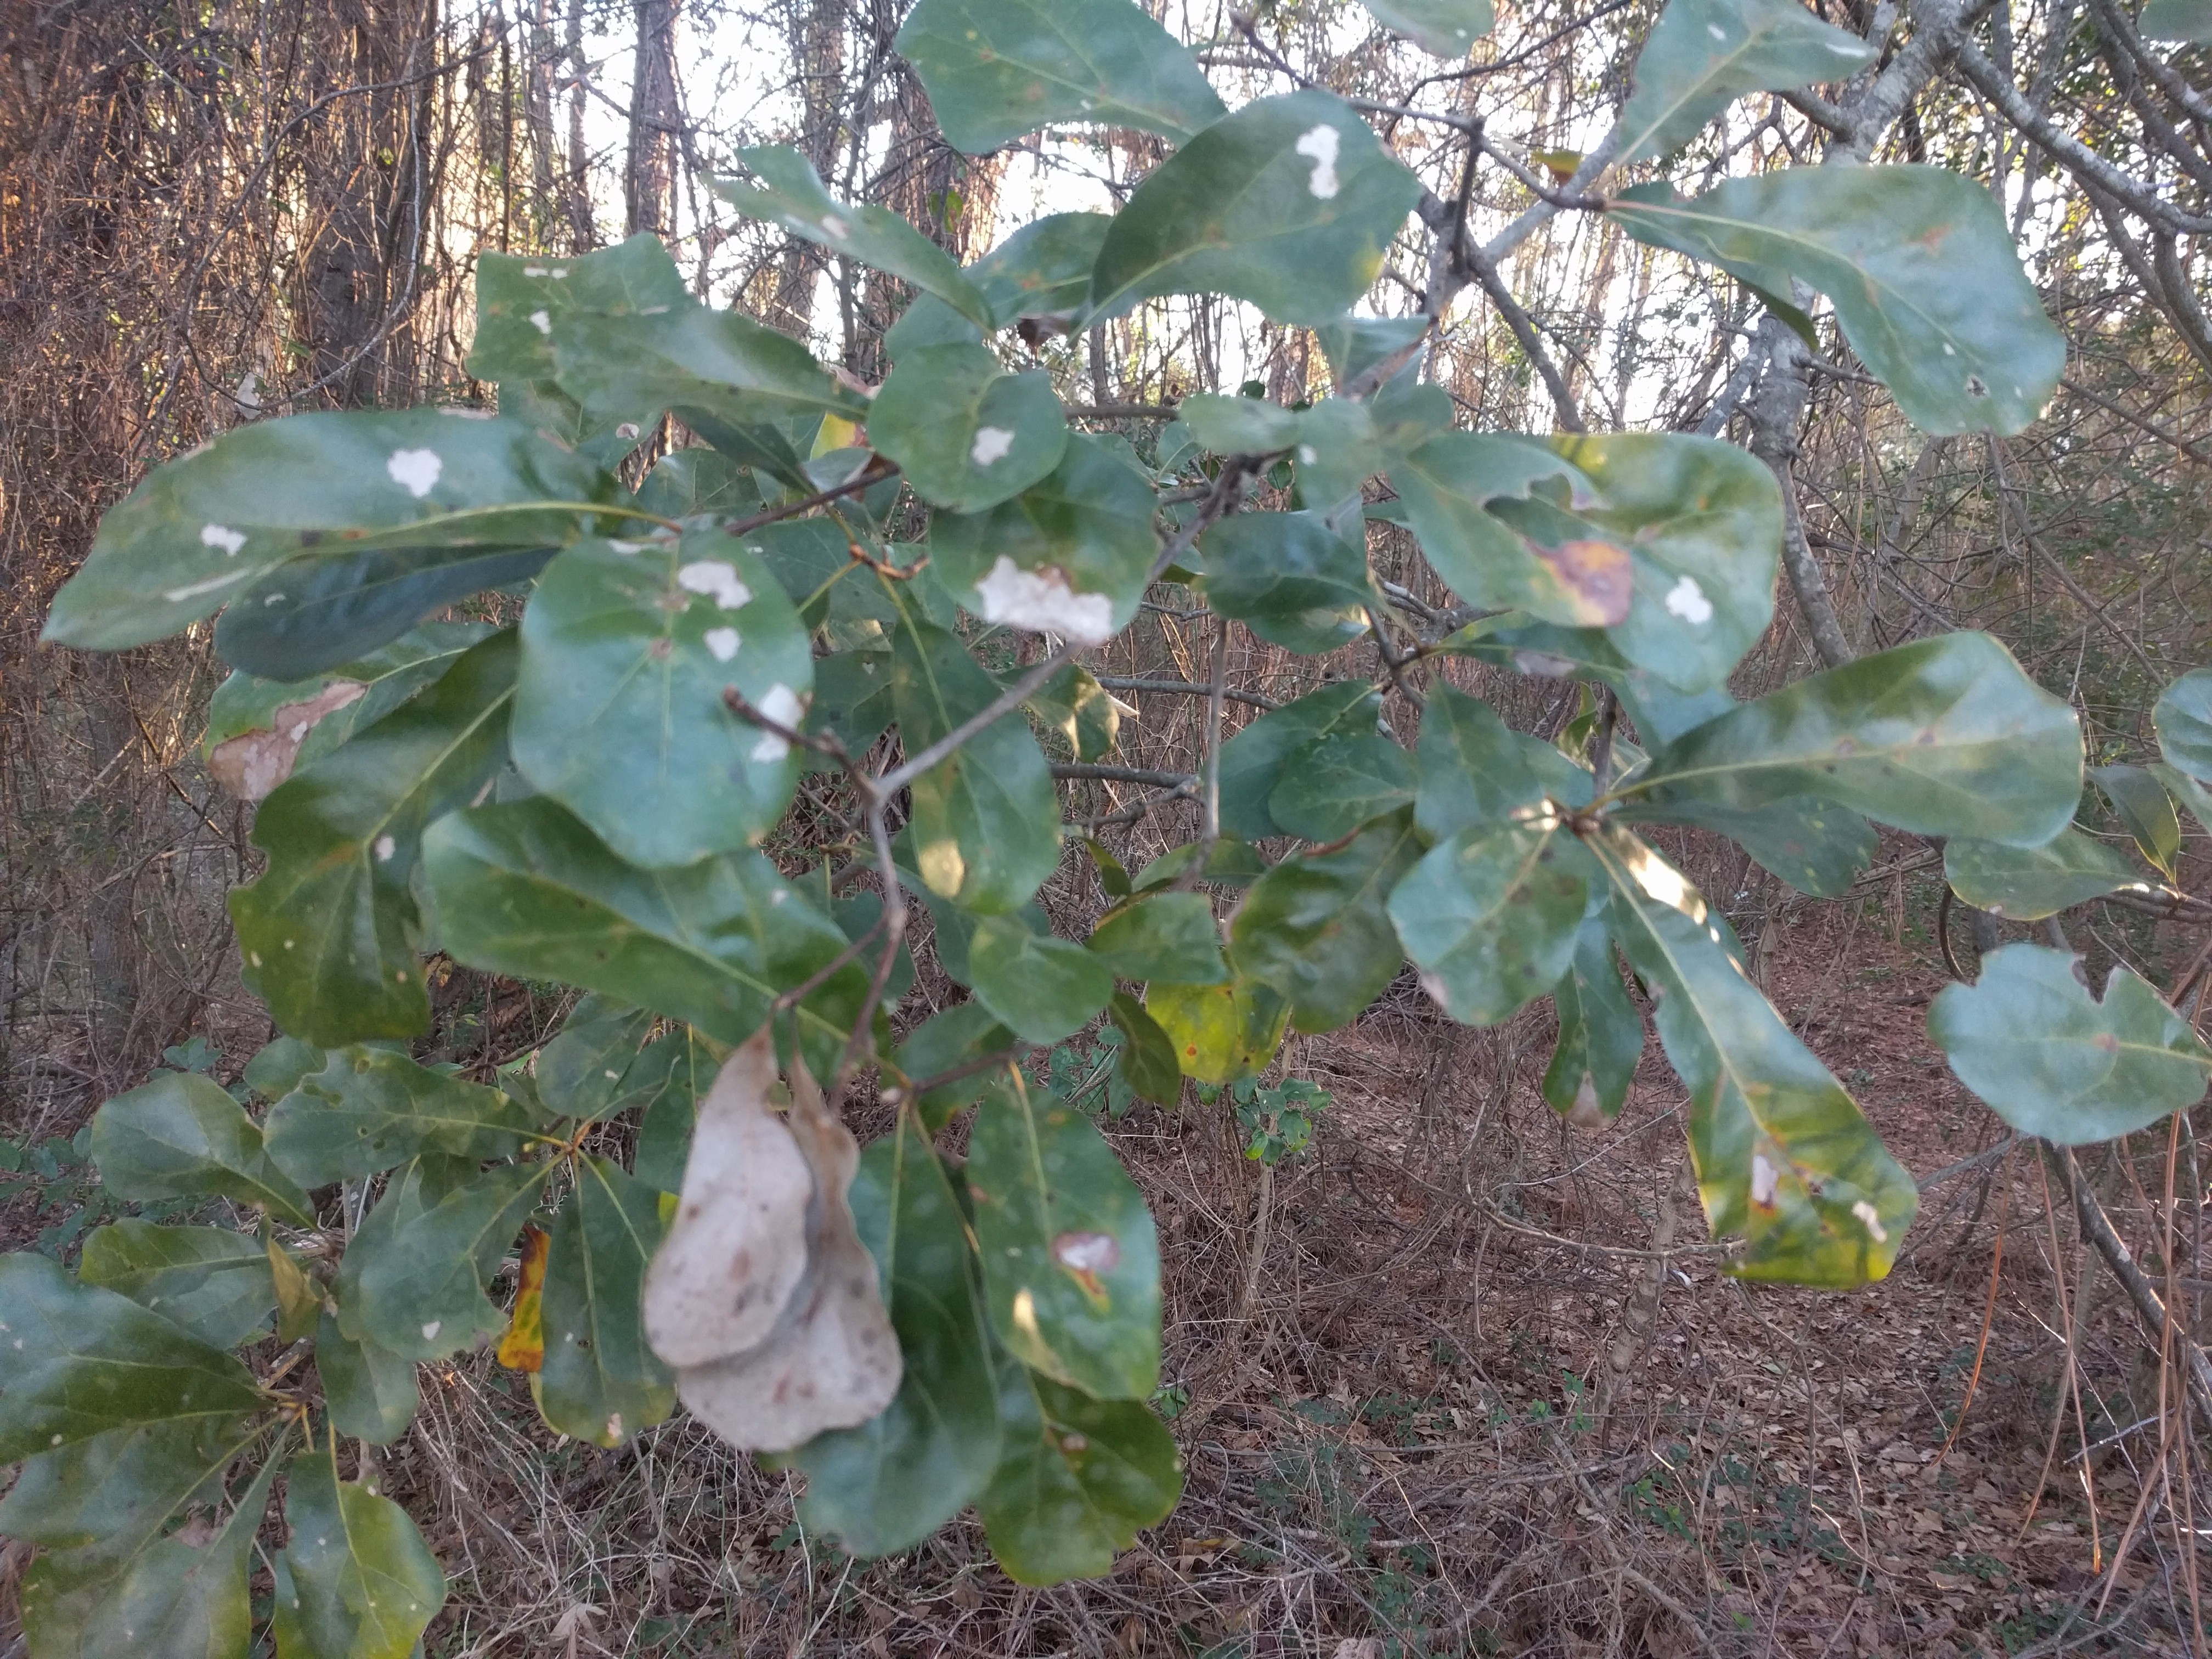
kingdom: Plantae
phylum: Tracheophyta
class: Magnoliopsida
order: Fagales
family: Fagaceae
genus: Quercus
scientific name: Quercus nigra
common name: Water oak
